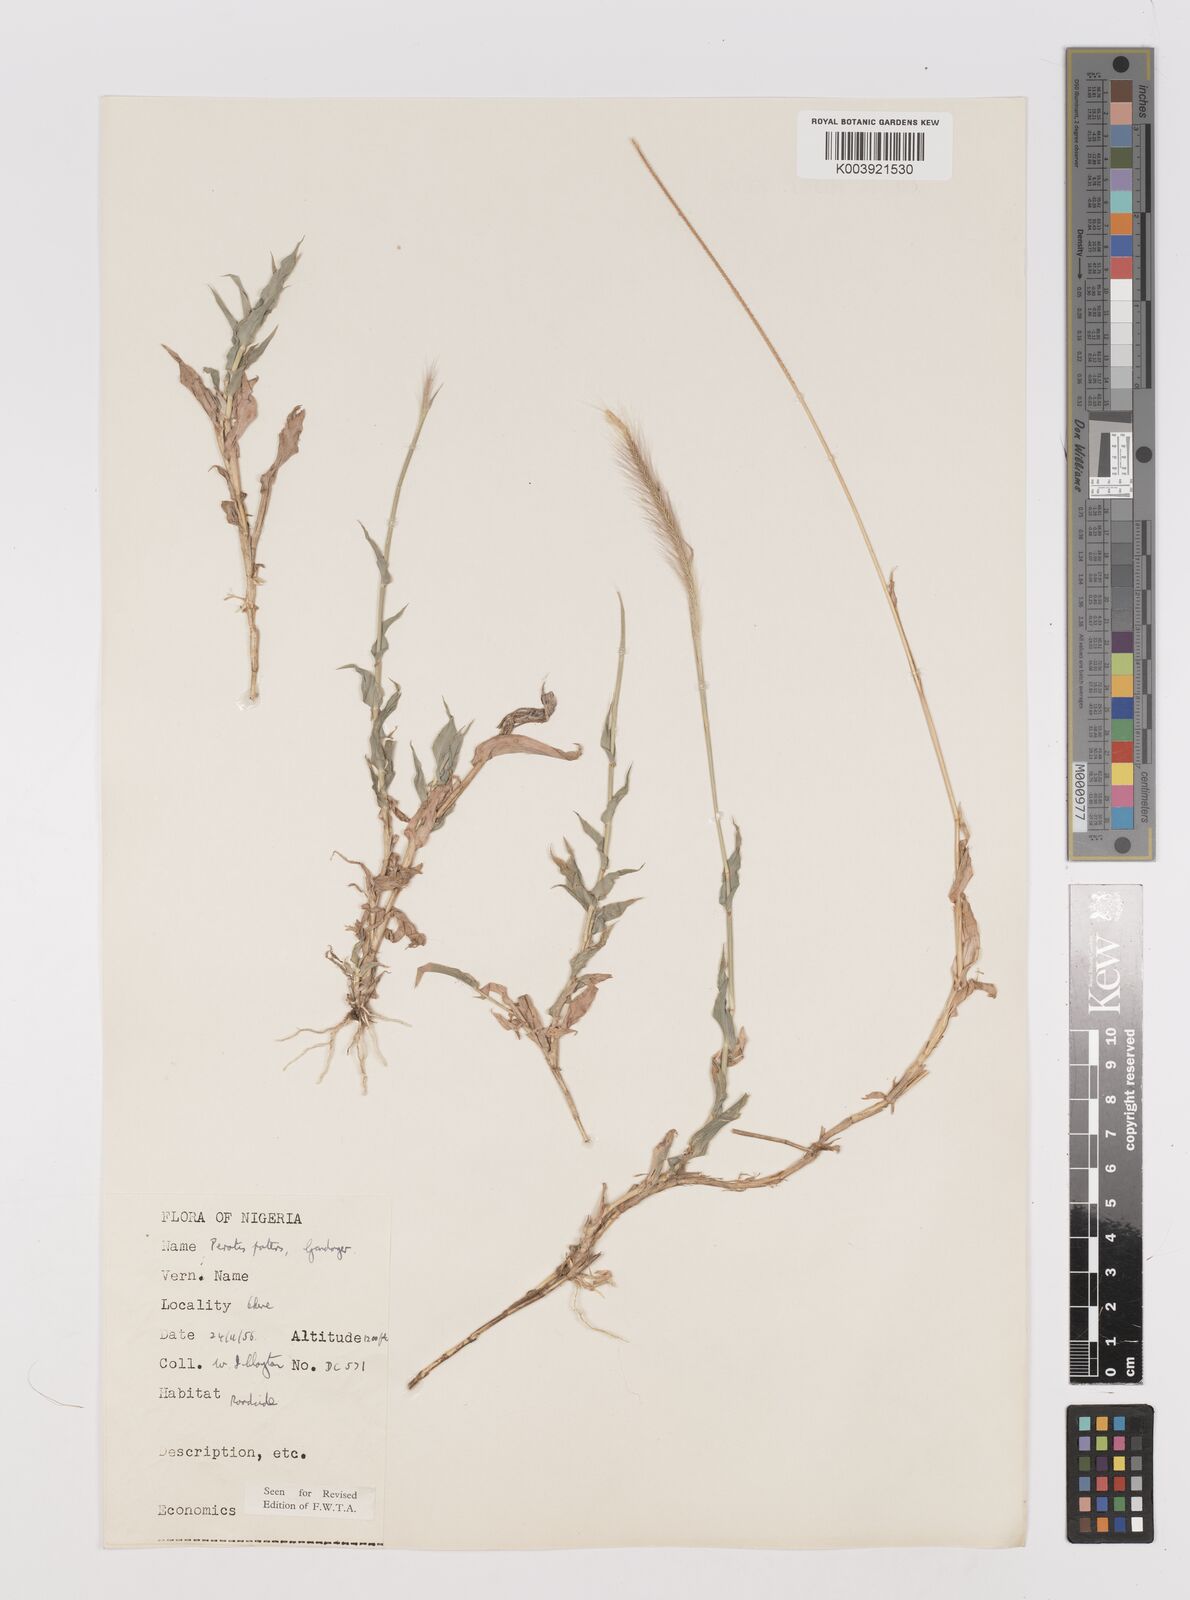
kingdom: Plantae
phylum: Tracheophyta
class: Liliopsida
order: Poales
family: Poaceae
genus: Perotis
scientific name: Perotis patens
